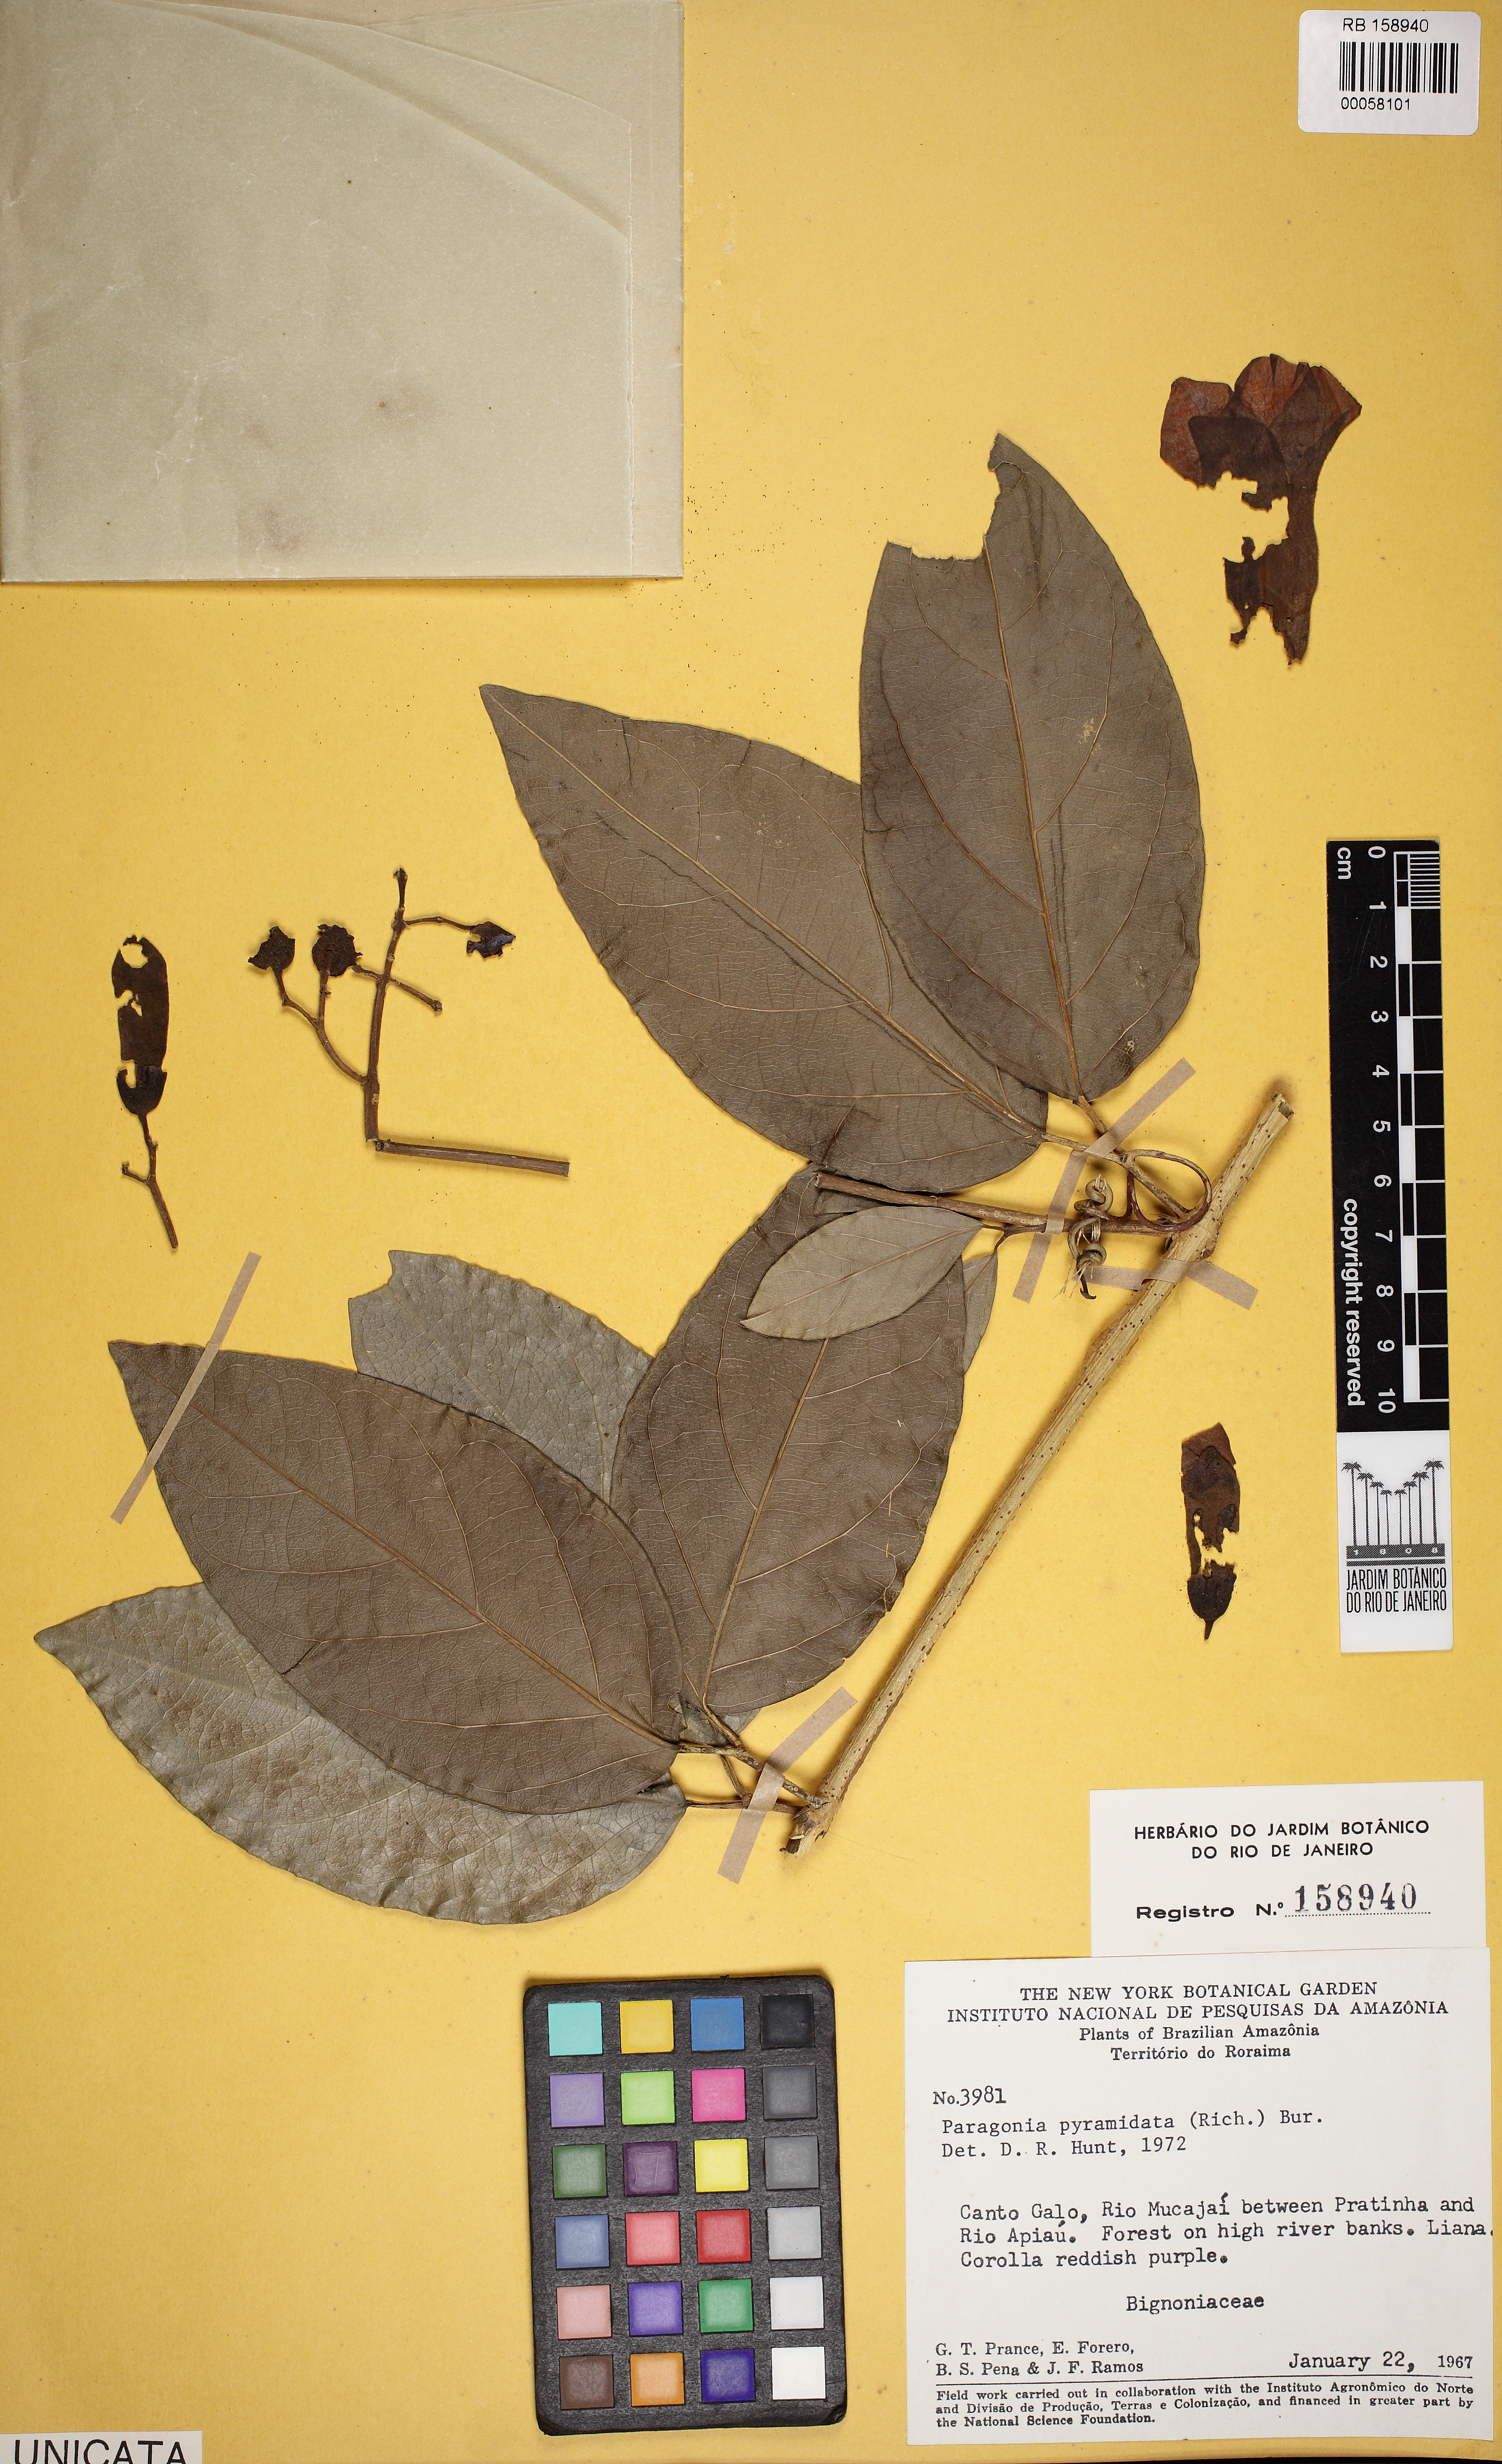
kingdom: Plantae
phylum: Tracheophyta
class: Magnoliopsida
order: Lamiales
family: Bignoniaceae
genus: Tanaecium
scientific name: Tanaecium pyramidatum
